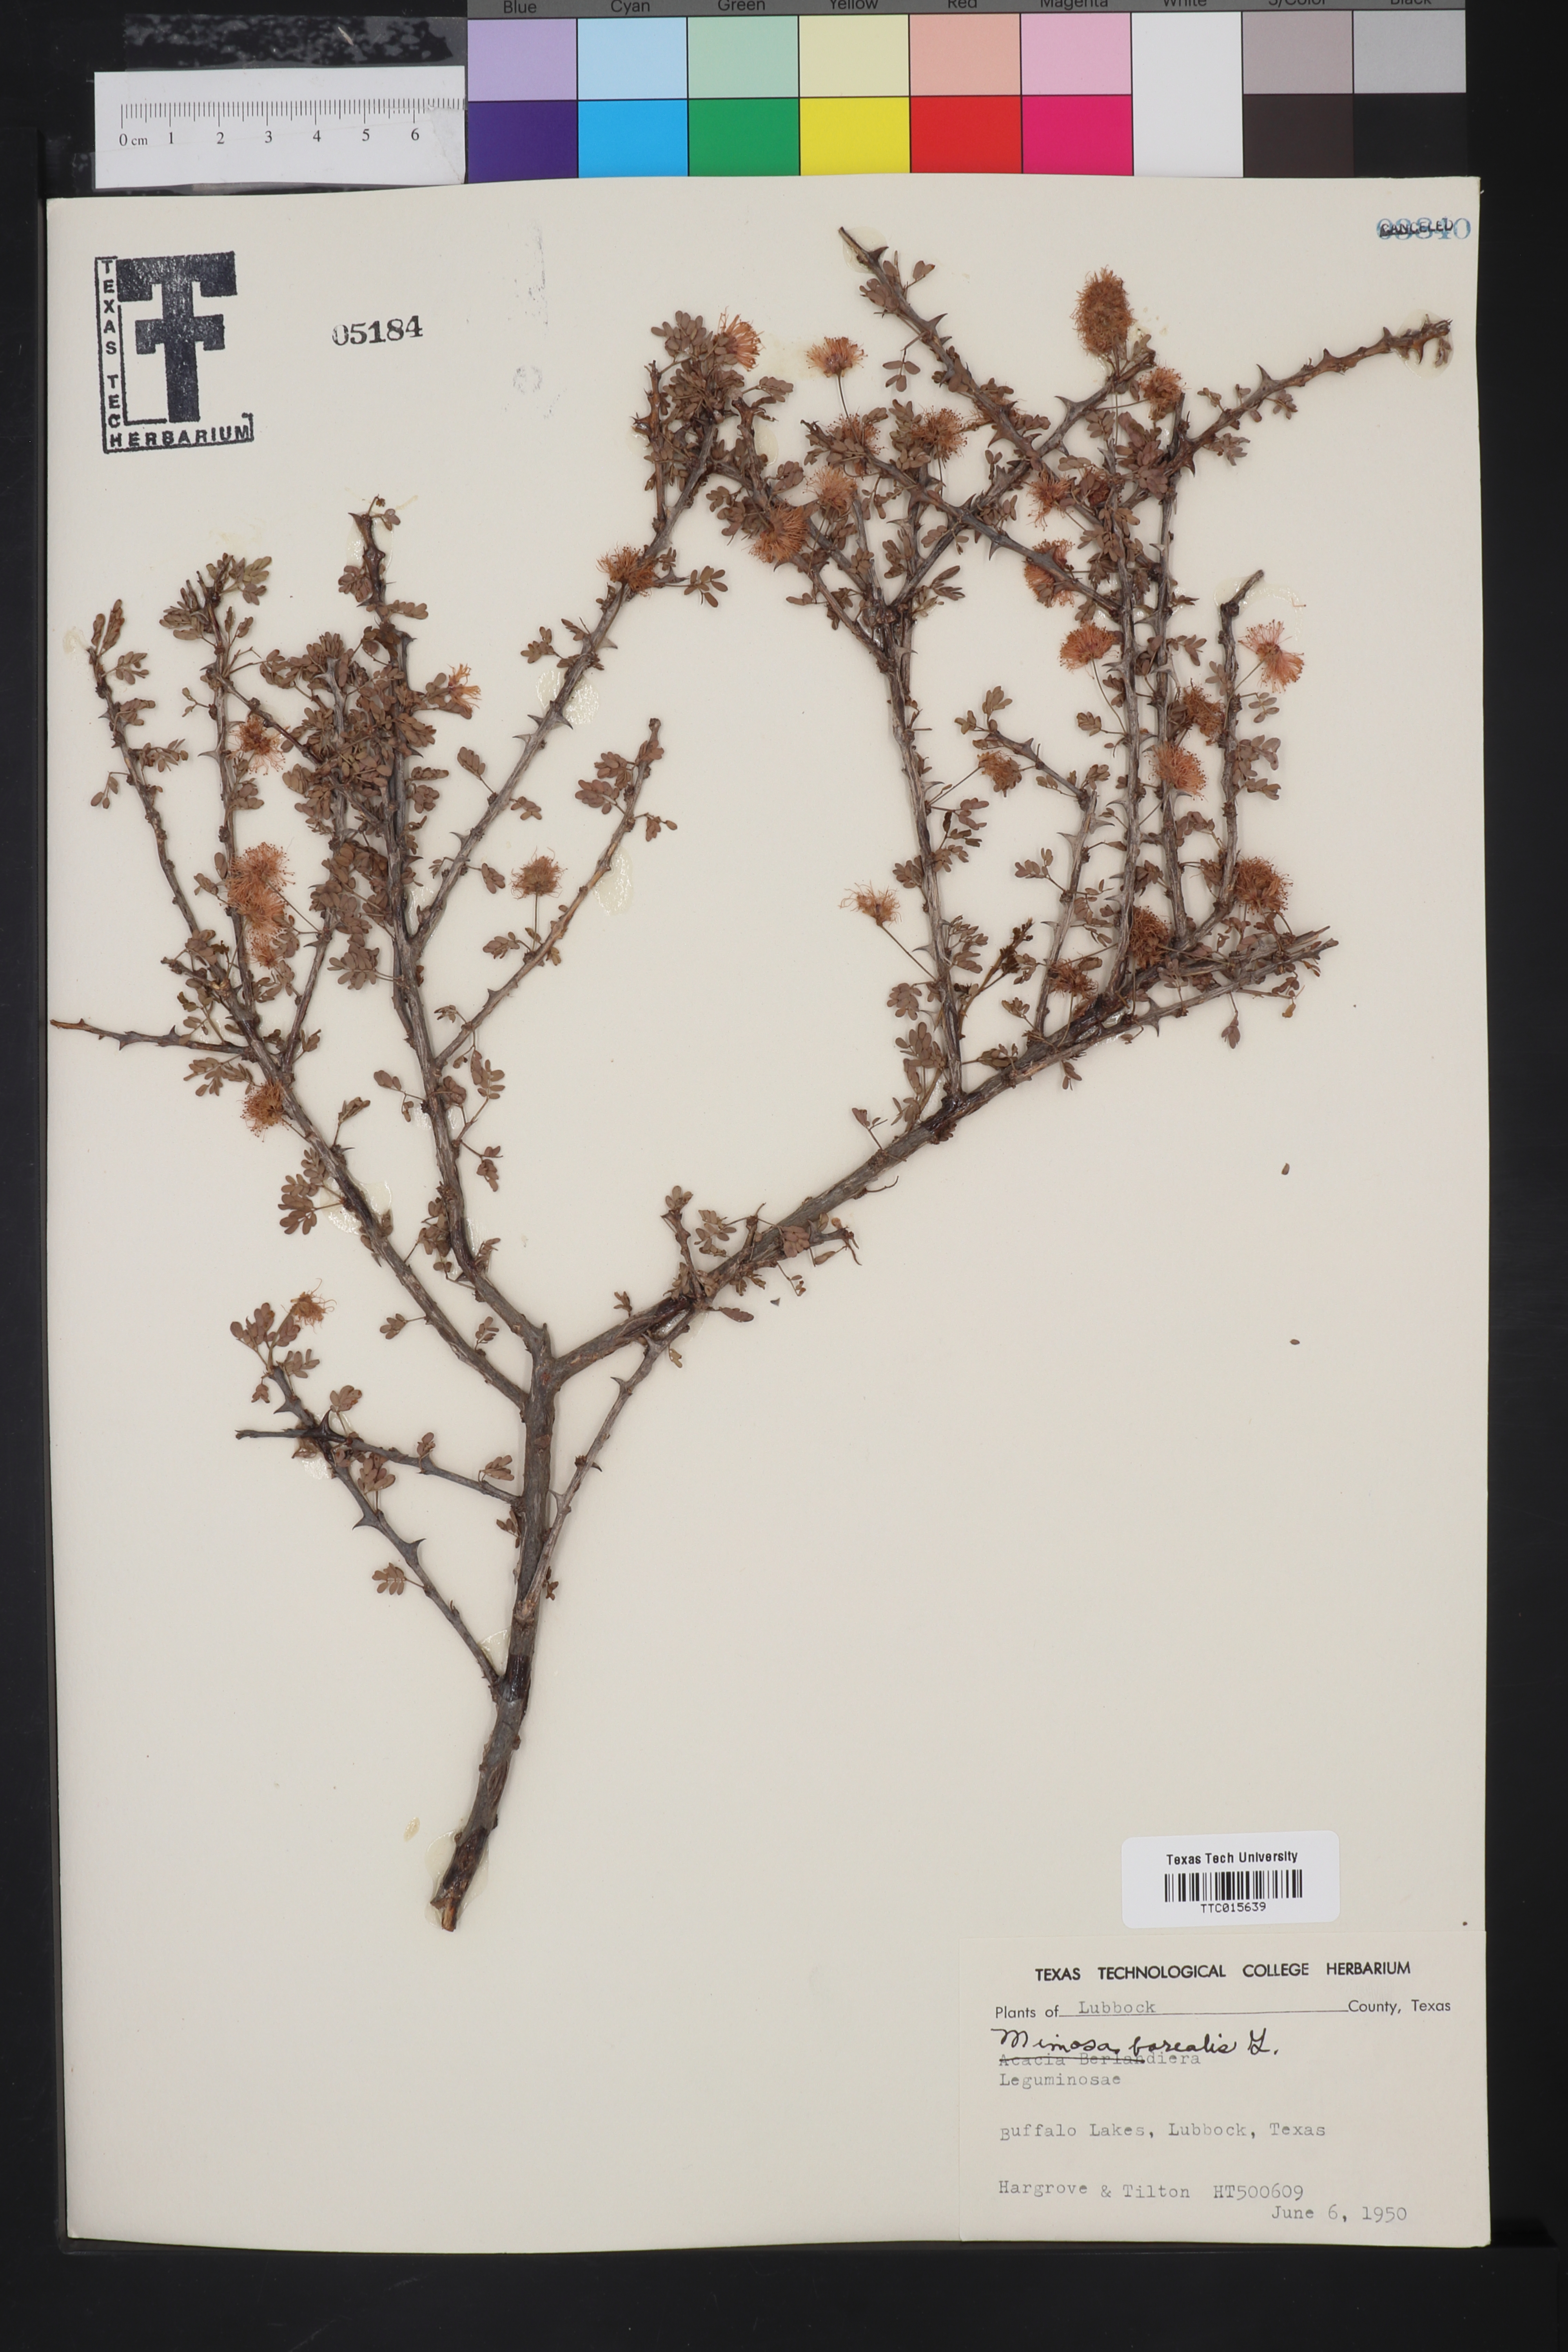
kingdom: Plantae
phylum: Tracheophyta
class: Magnoliopsida
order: Fabales
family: Fabaceae
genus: Mimosa
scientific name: Mimosa borealis
